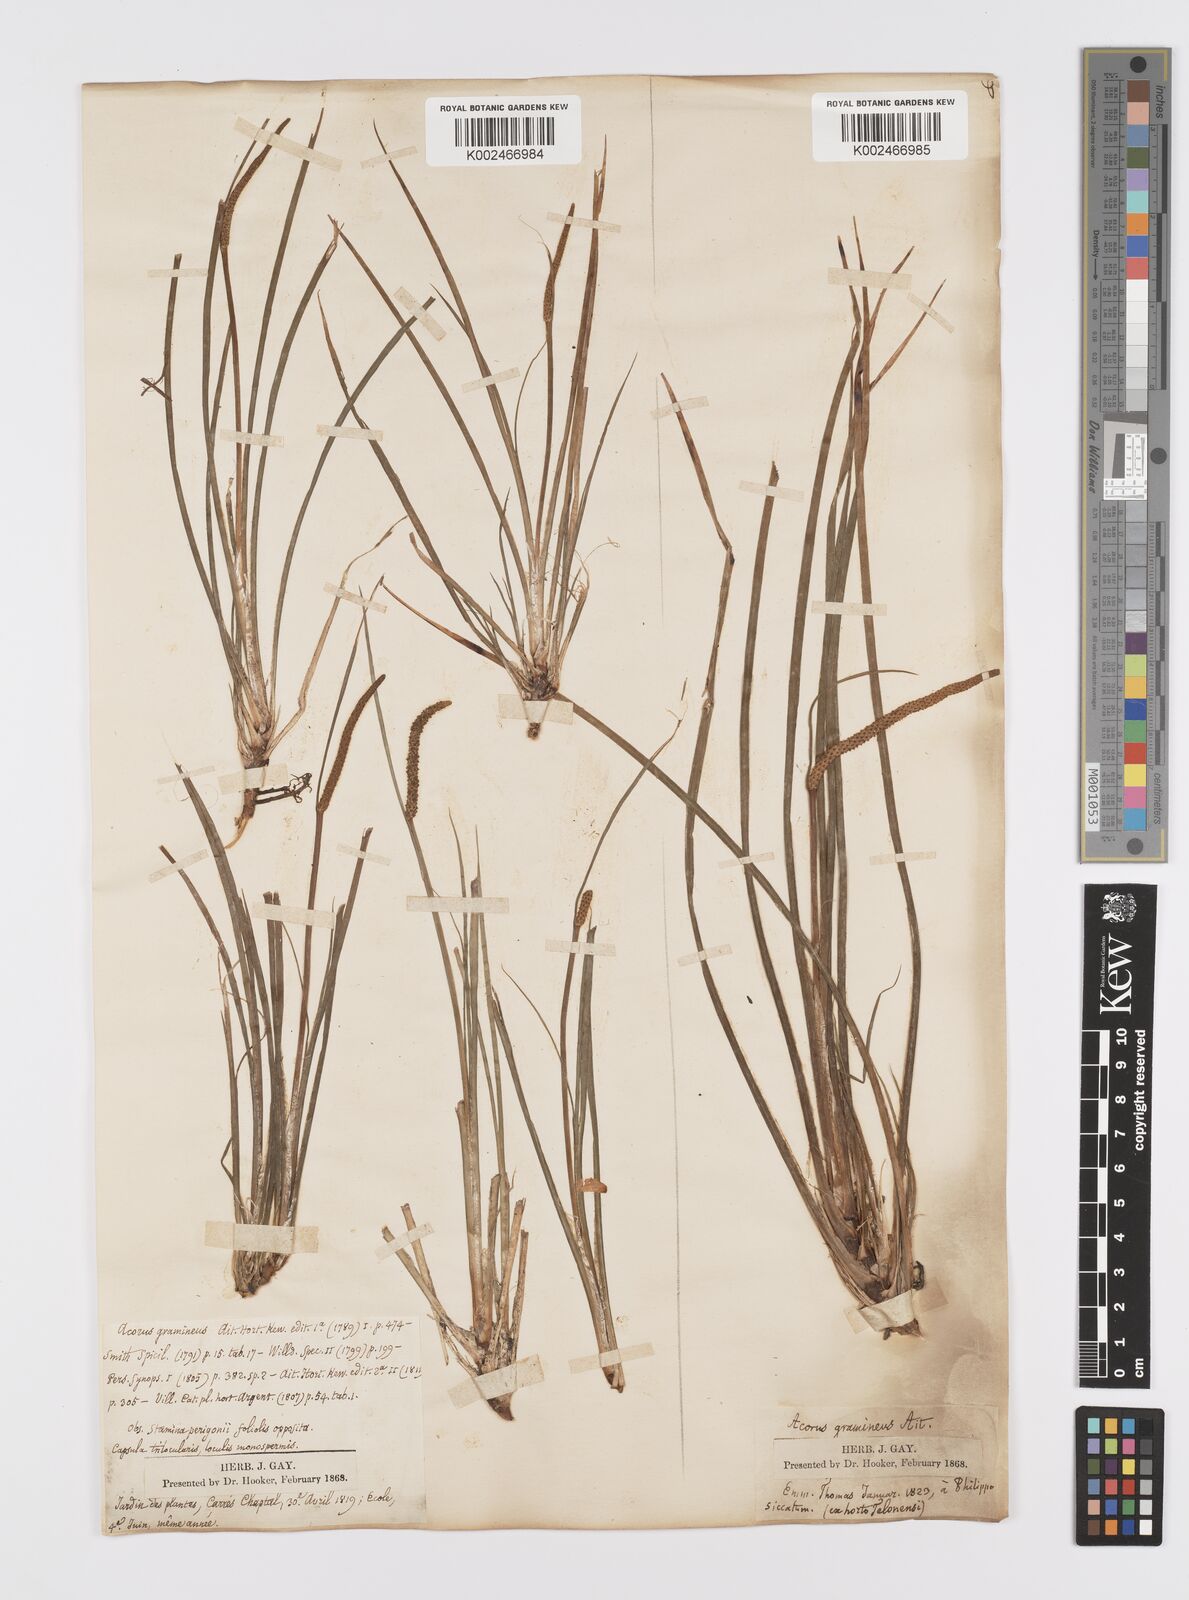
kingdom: Plantae
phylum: Tracheophyta
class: Liliopsida
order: Acorales
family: Acoraceae
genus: Acorus
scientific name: Acorus gramineus
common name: Slender sweet-flag
